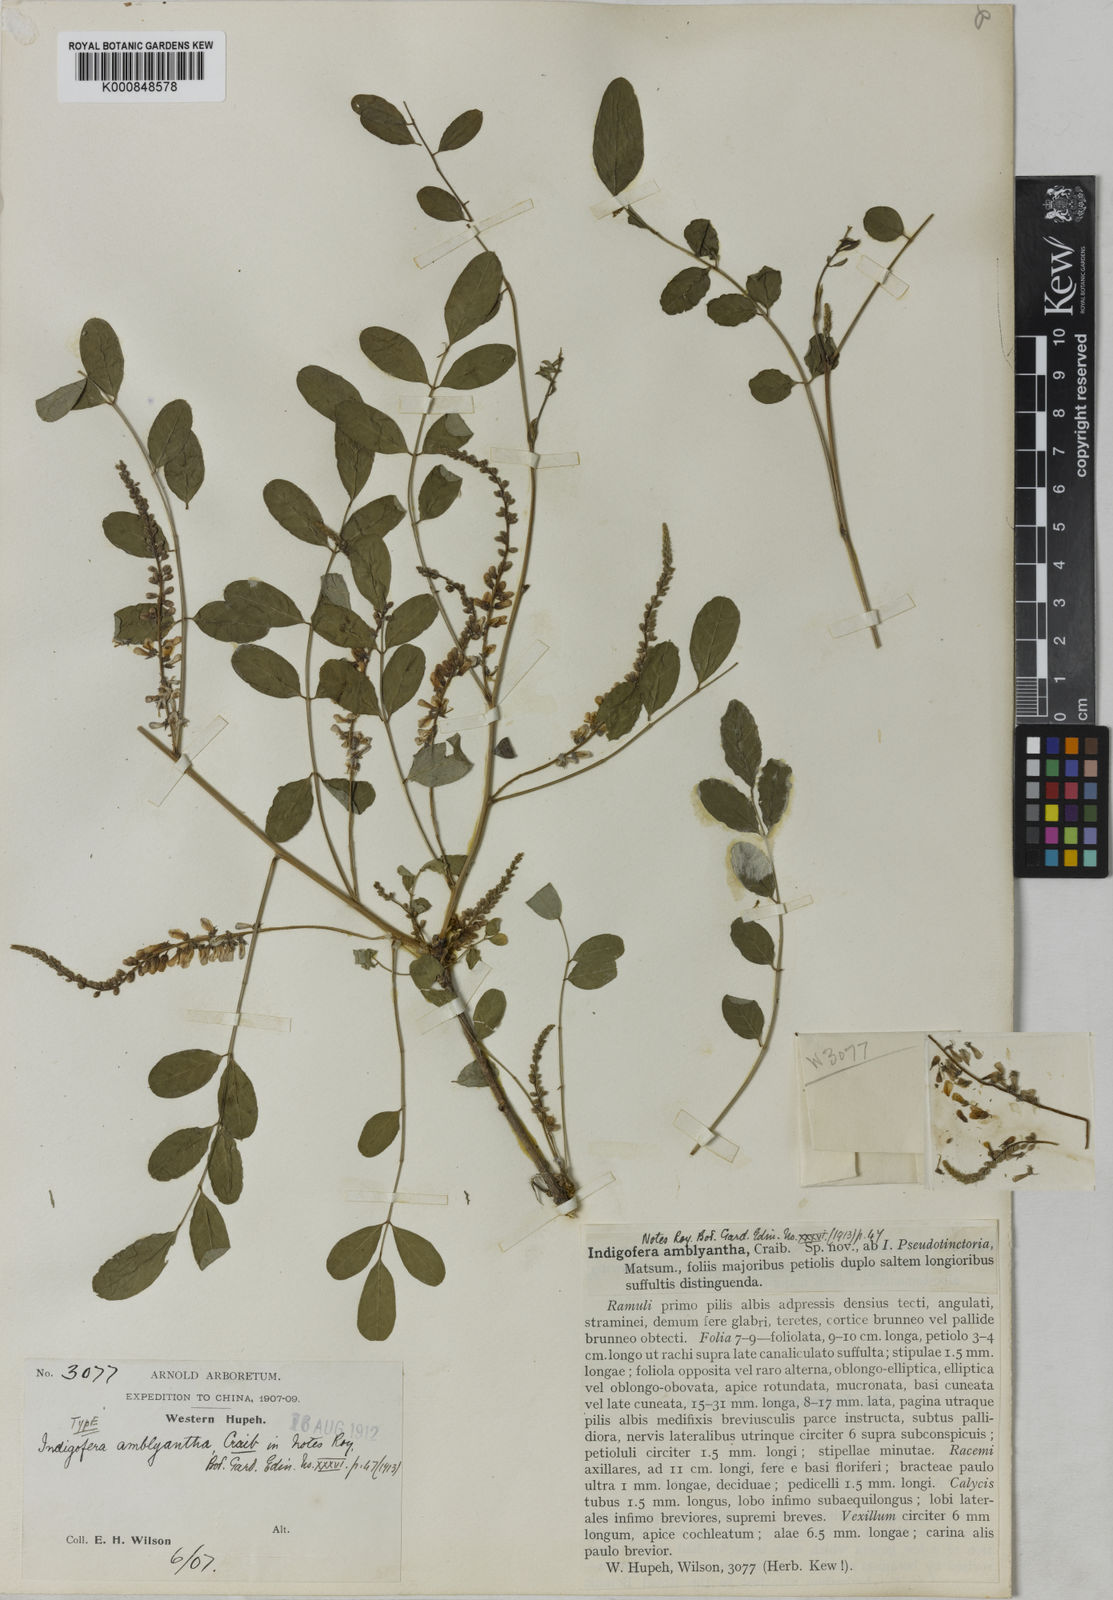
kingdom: Plantae
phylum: Tracheophyta
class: Magnoliopsida
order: Fabales
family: Fabaceae
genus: Indigofera
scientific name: Indigofera amblyantha
